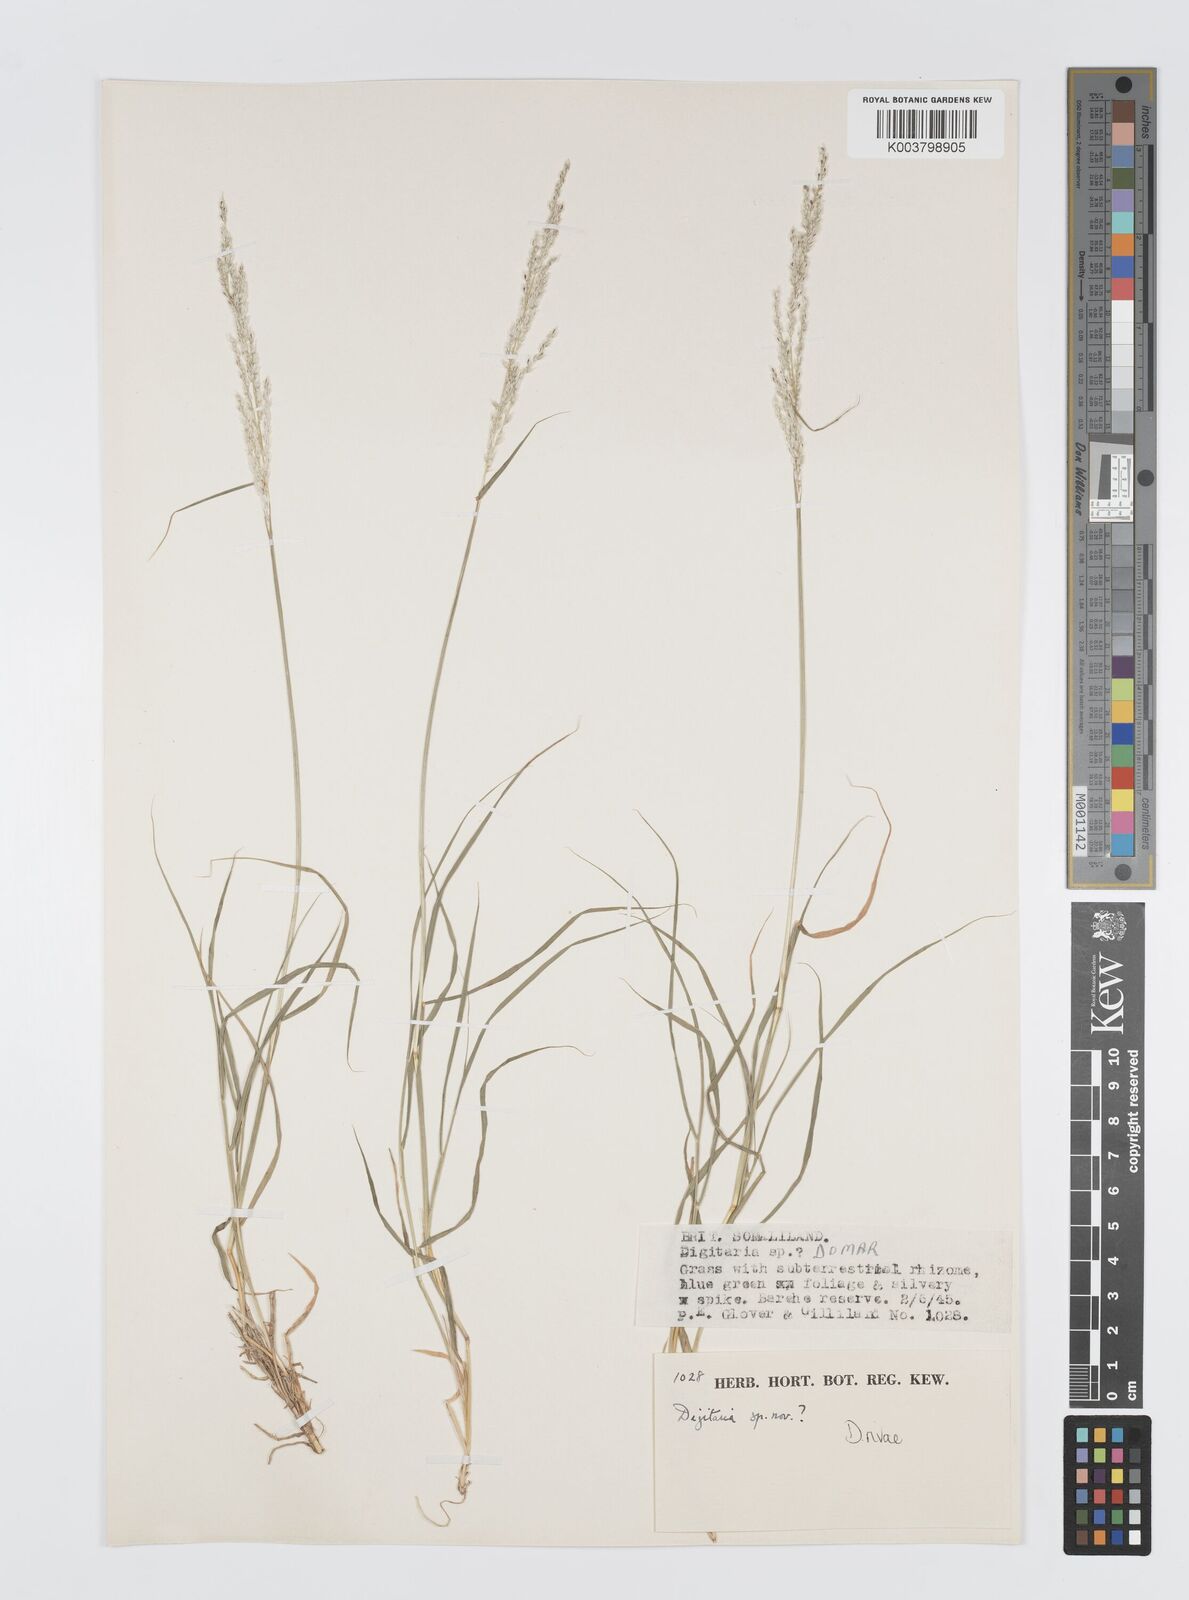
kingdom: Plantae
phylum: Tracheophyta
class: Liliopsida
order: Poales
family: Poaceae
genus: Digitaria
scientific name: Digitaria rivae
